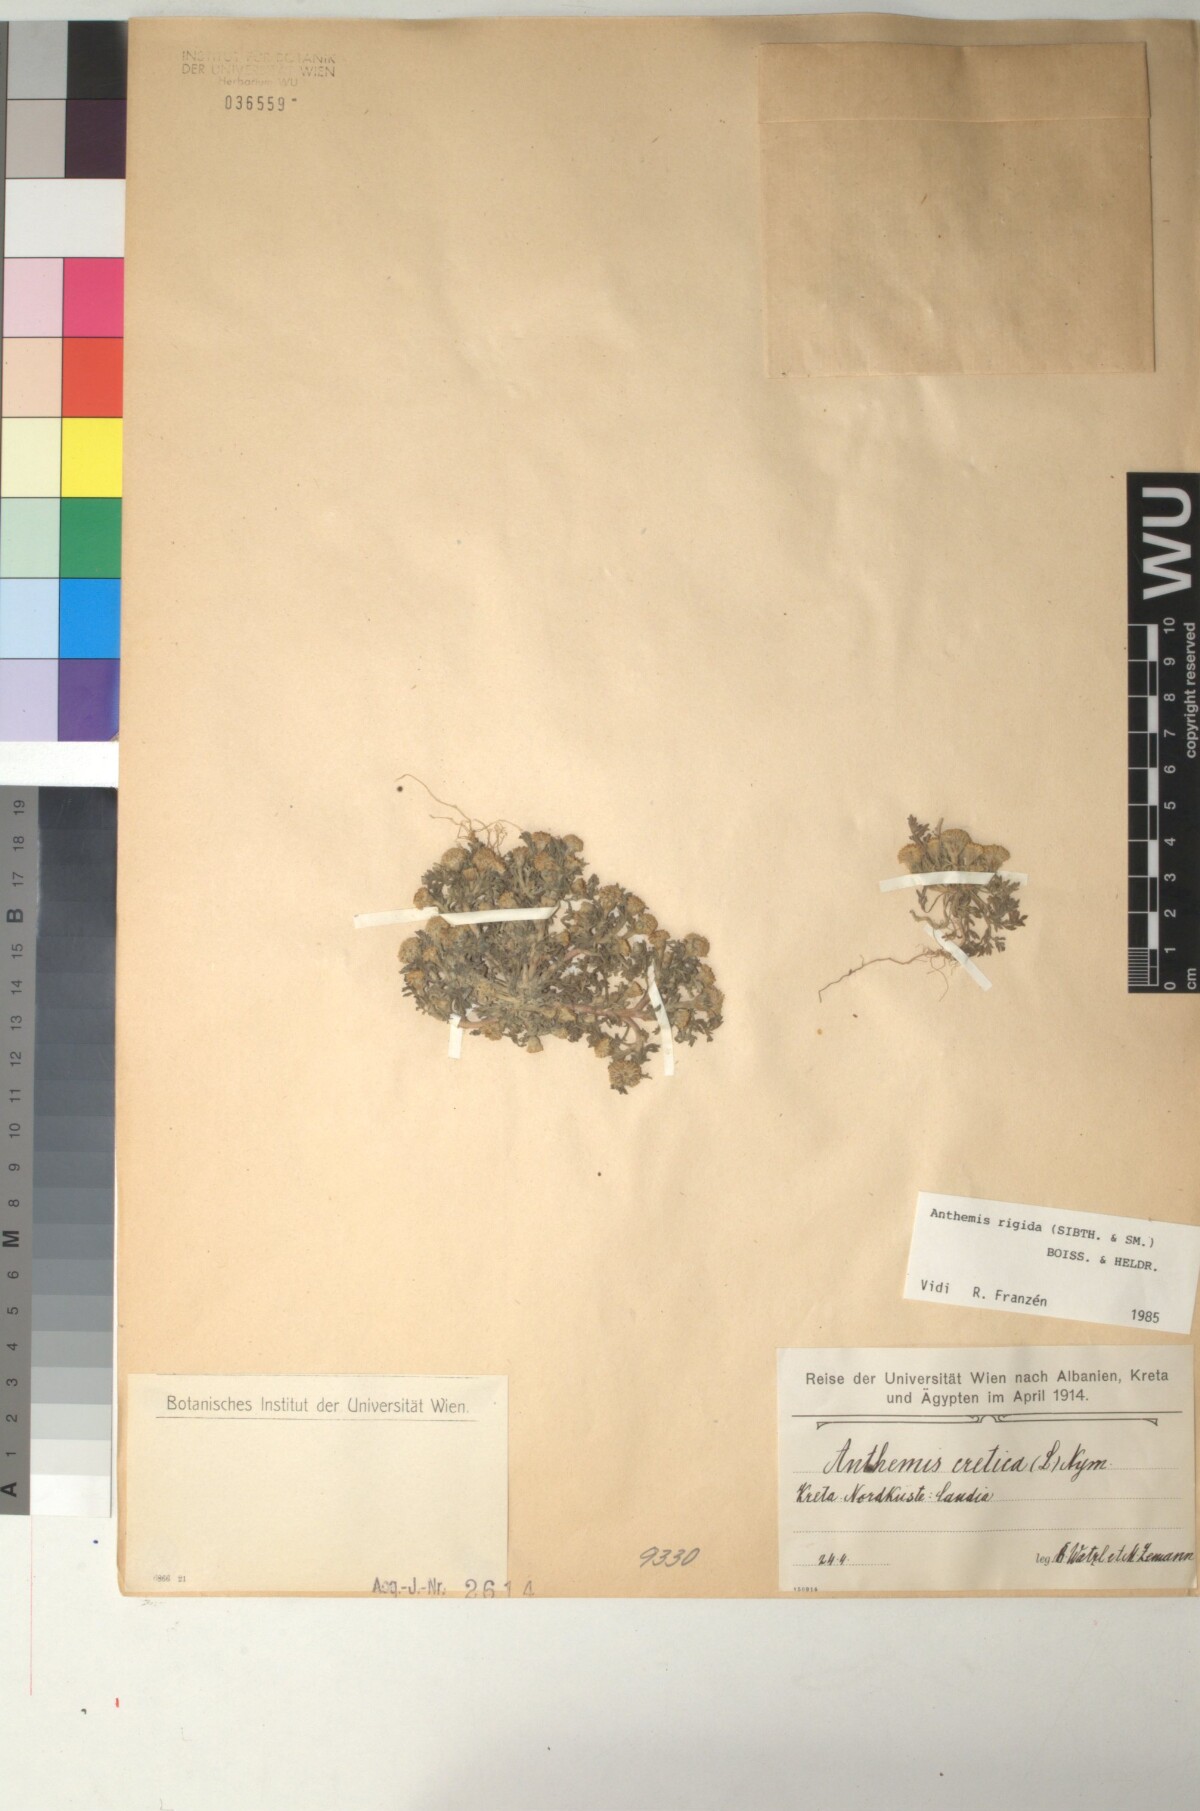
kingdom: Plantae
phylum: Tracheophyta
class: Magnoliopsida
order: Asterales
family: Asteraceae
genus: Anthemis
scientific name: Anthemis rigida
